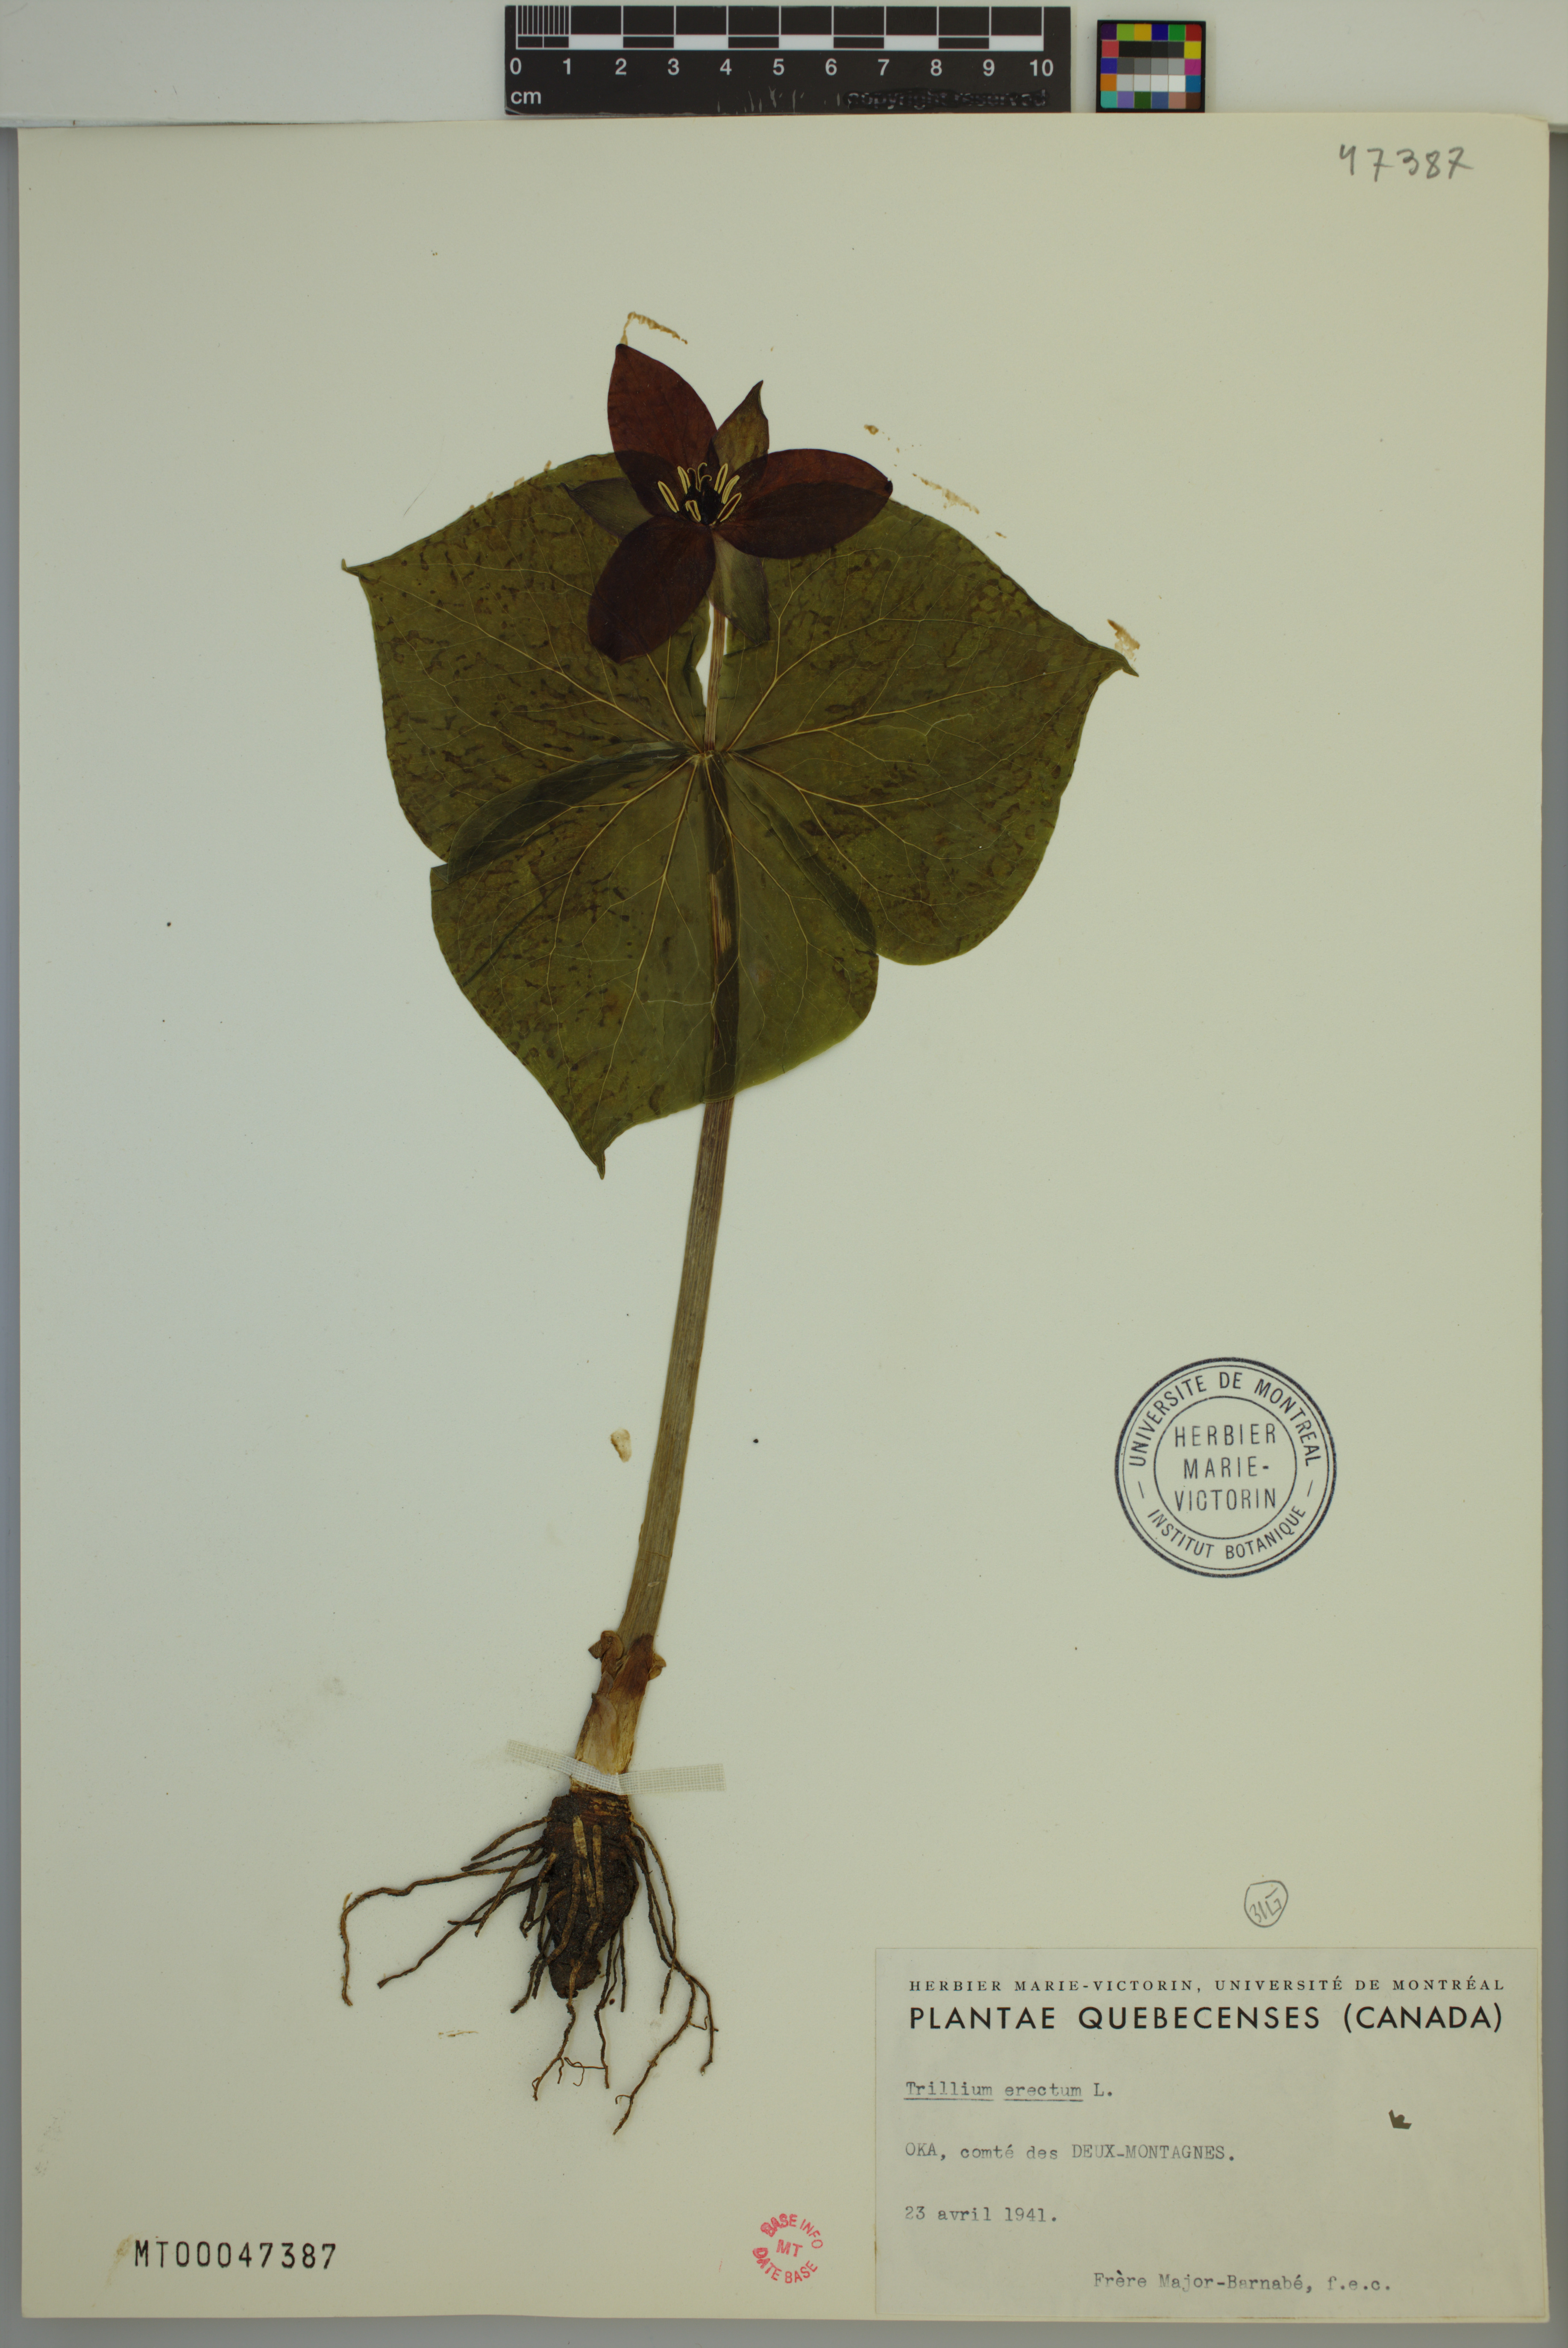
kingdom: Plantae
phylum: Tracheophyta
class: Liliopsida
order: Liliales
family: Melanthiaceae
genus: Trillium
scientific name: Trillium erectum
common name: Purple trillium
